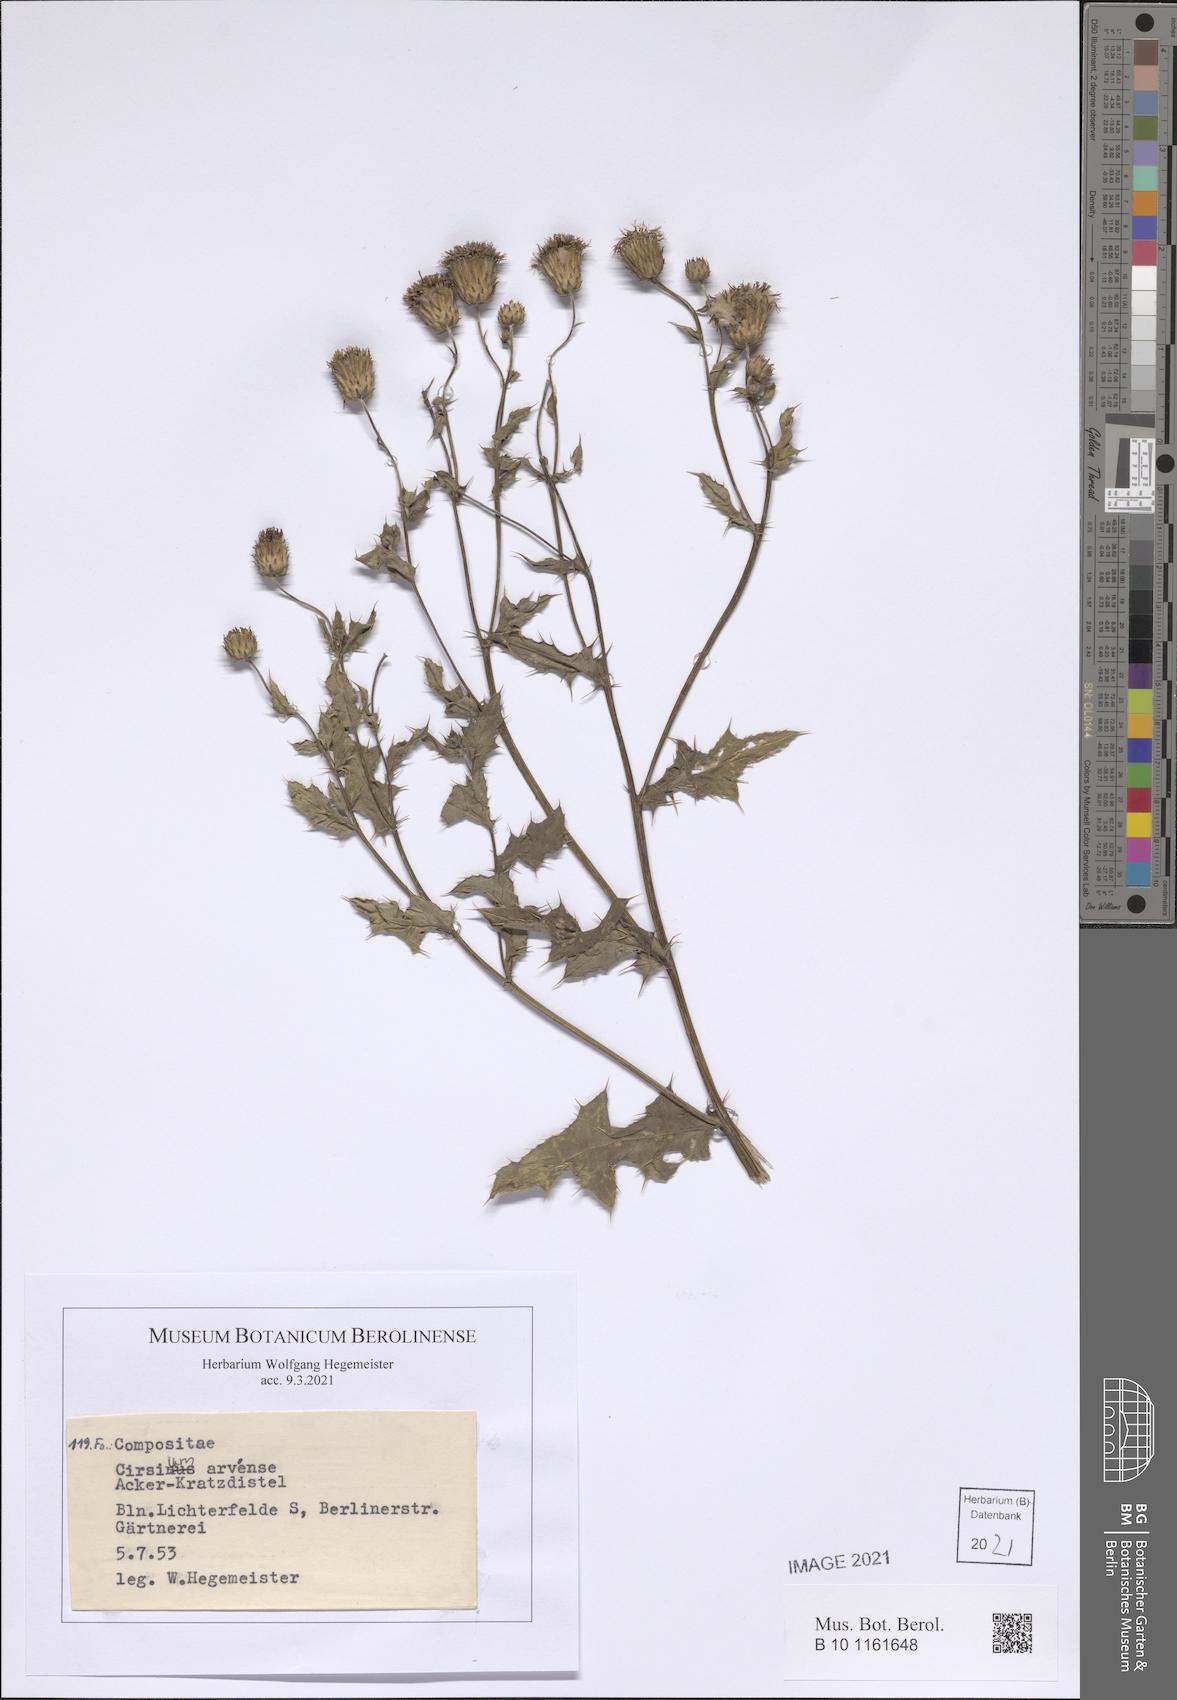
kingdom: Plantae
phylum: Tracheophyta
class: Magnoliopsida
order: Asterales
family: Asteraceae
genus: Cirsium
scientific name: Cirsium arvense
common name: Creeping thistle
